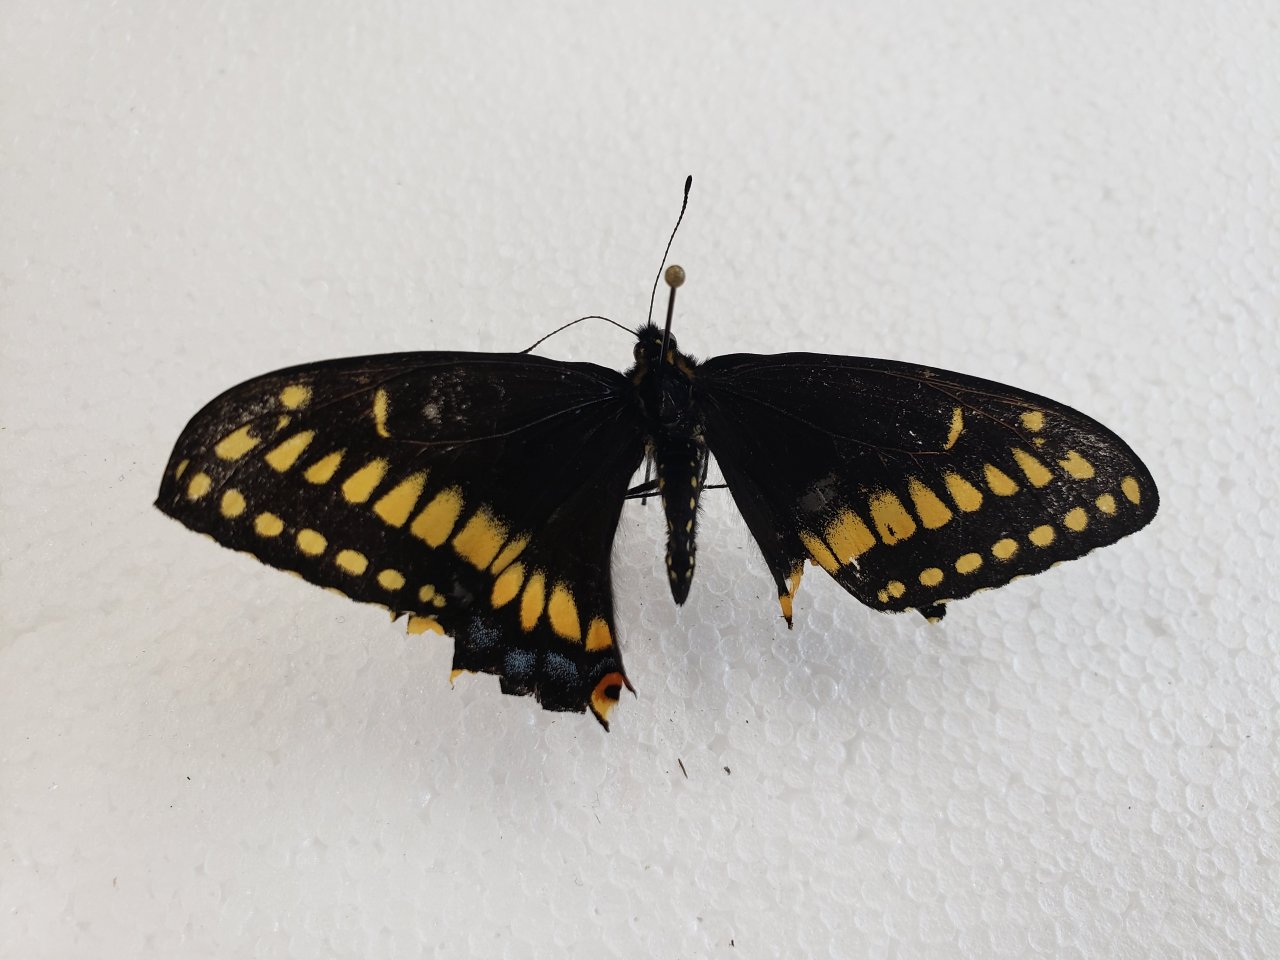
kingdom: Animalia
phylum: Arthropoda
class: Insecta
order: Lepidoptera
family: Papilionidae
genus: Papilio
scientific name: Papilio brevicauda
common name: Short-tailed Swallowtail
